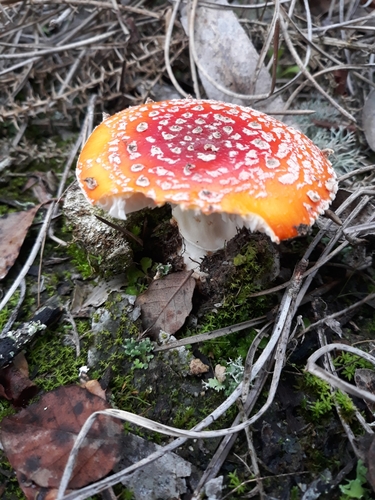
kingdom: Fungi
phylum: Basidiomycota
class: Agaricomycetes
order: Agaricales
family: Amanitaceae
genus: Amanita
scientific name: Amanita muscaria
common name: Fly agaric
